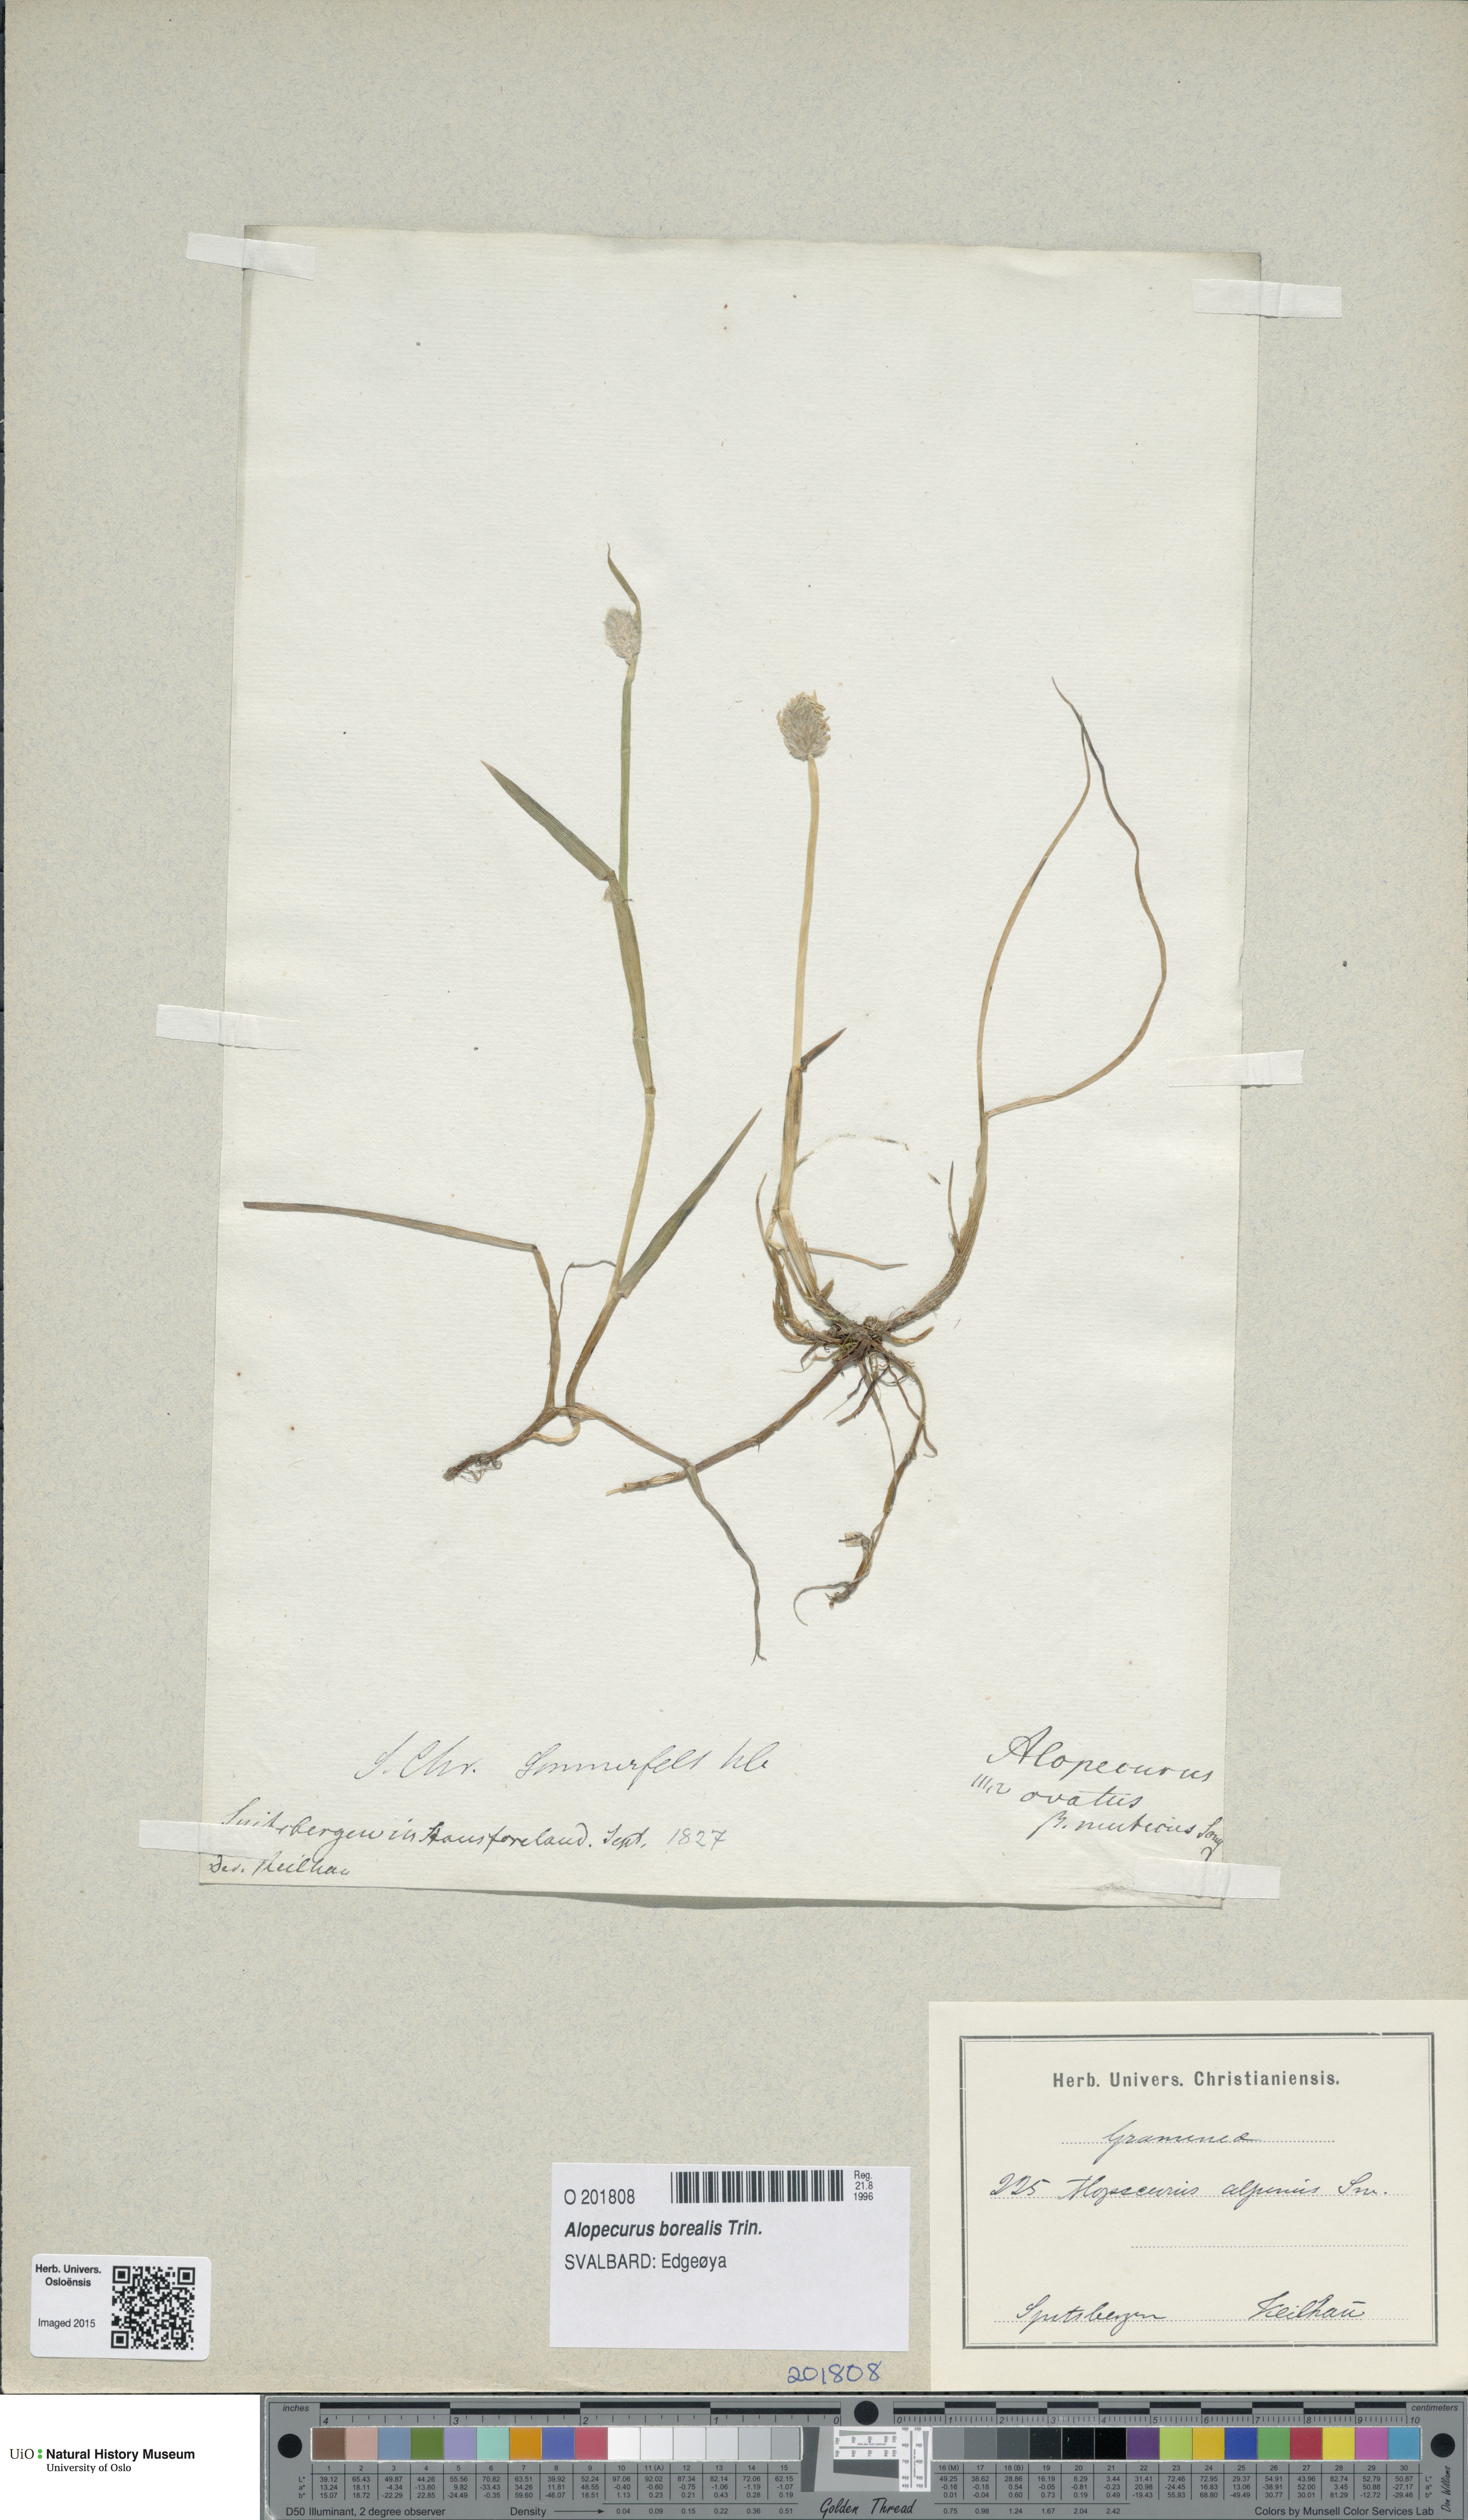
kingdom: Plantae
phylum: Tracheophyta
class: Liliopsida
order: Poales
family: Poaceae
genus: Alopecurus
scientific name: Alopecurus magellanicus
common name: Alpine foxtail
